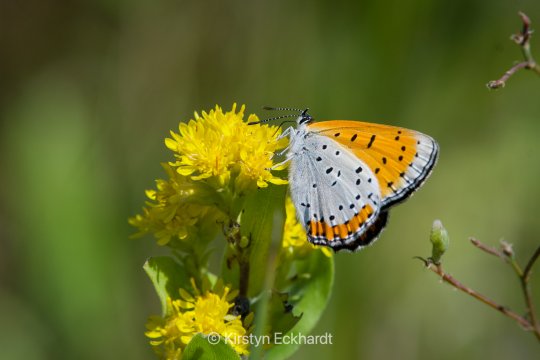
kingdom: Animalia
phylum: Arthropoda
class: Insecta
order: Lepidoptera
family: Sesiidae
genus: Sesia
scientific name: Sesia Lycaena hyllus
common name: Bronze Copper
